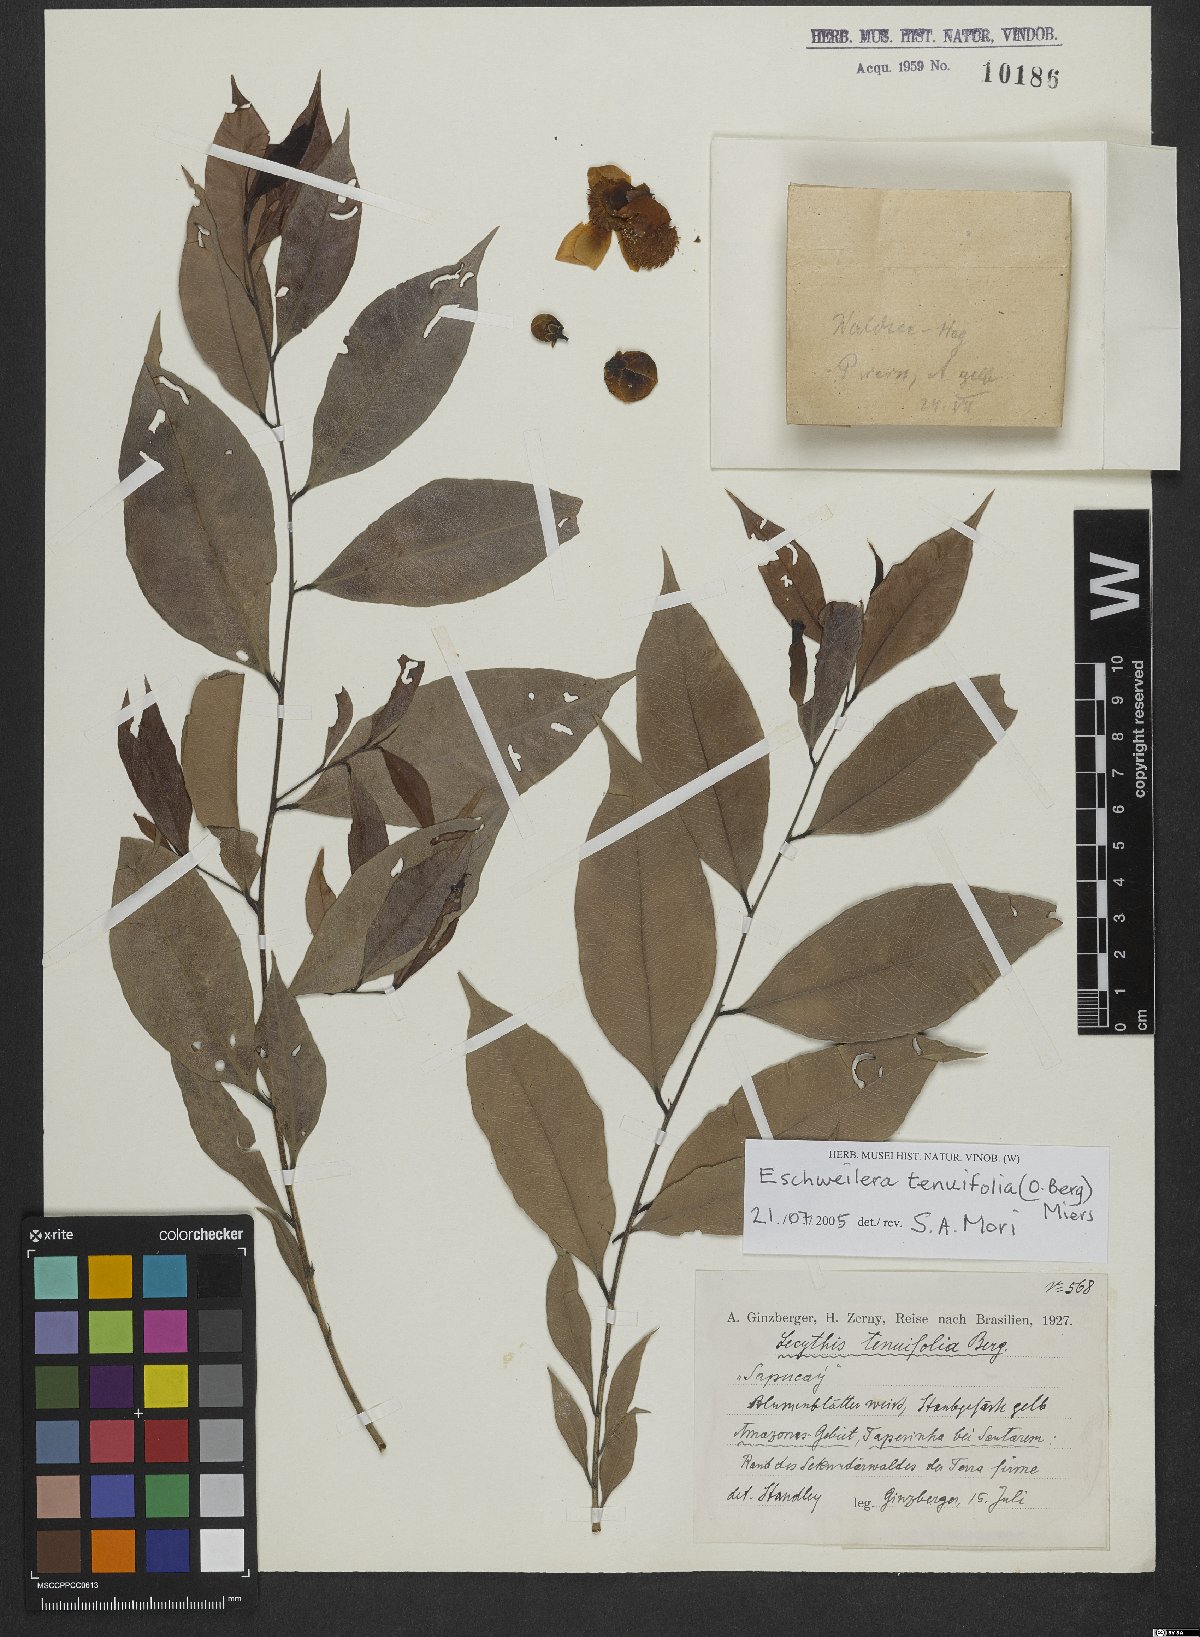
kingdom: Plantae
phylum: Tracheophyta
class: Magnoliopsida
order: Ericales
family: Lecythidaceae
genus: Eschweilera
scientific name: Eschweilera tenuifolia
